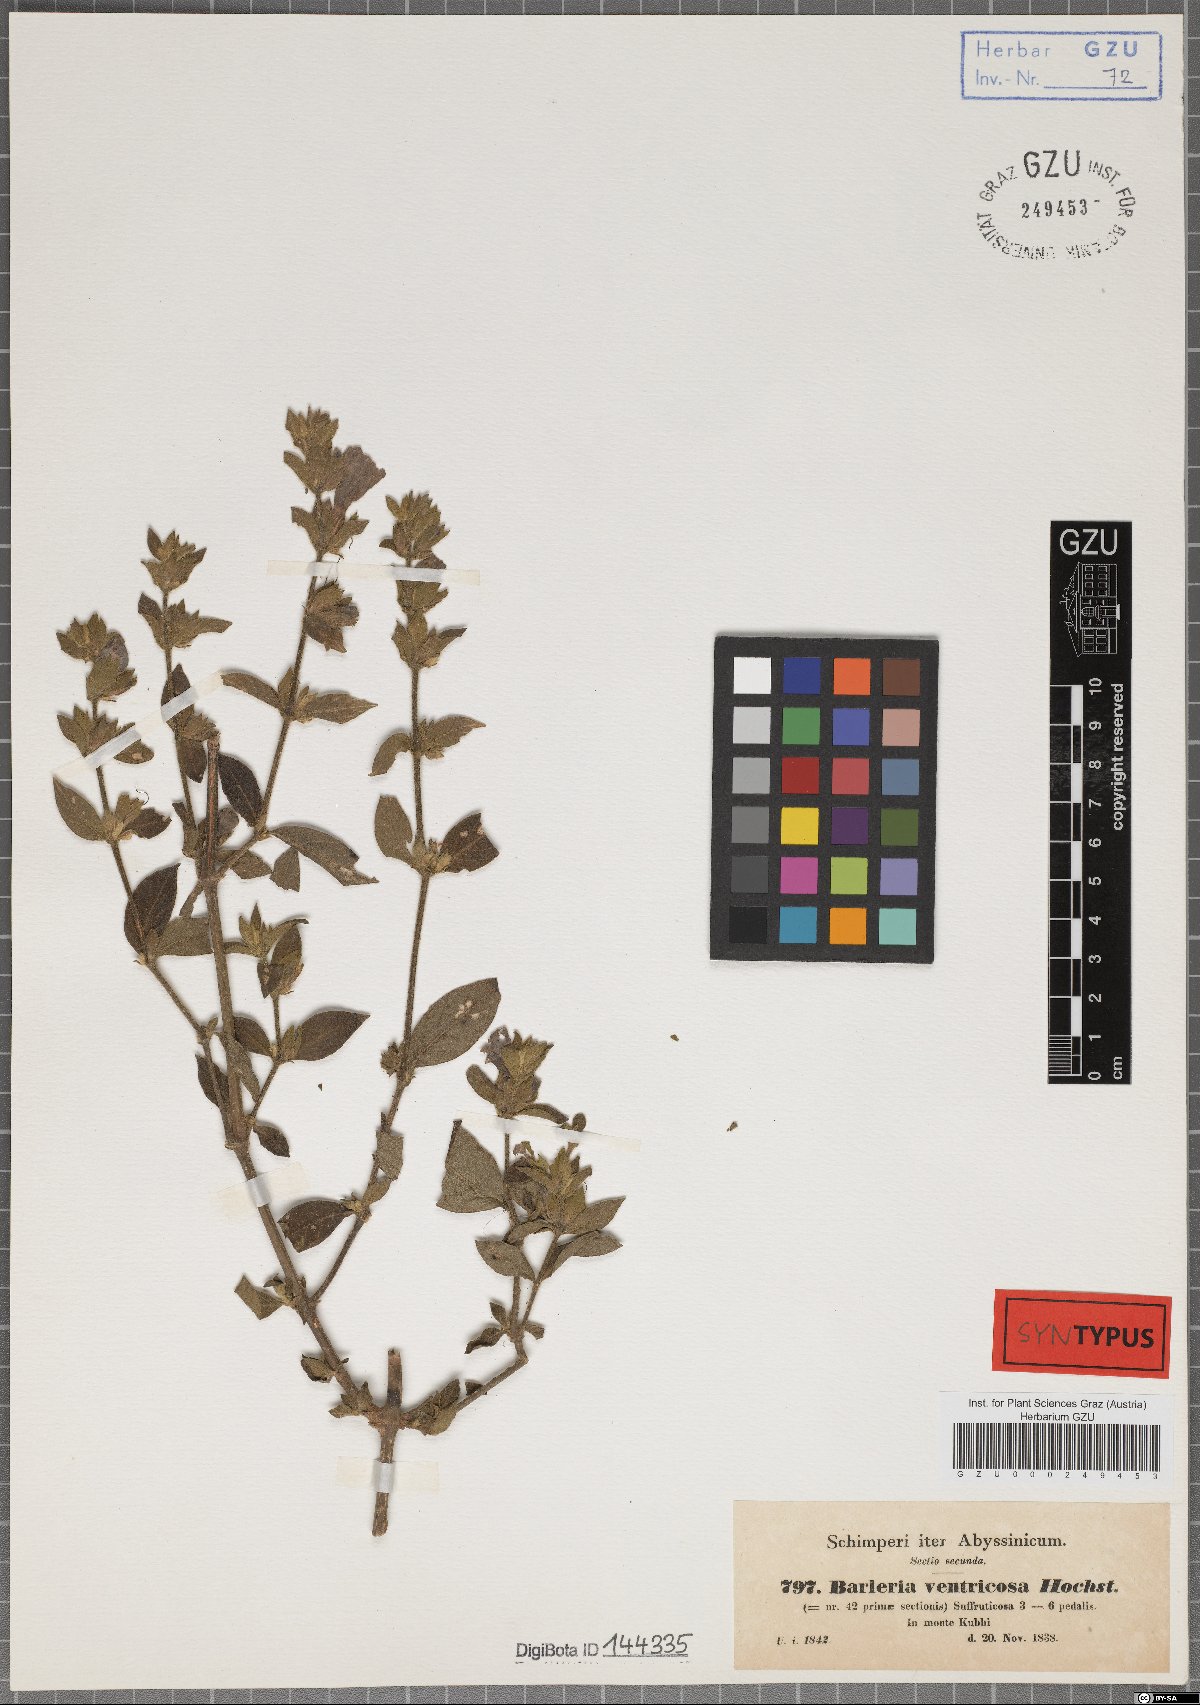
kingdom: Plantae
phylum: Tracheophyta
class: Magnoliopsida
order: Lamiales
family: Acanthaceae
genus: Barleria
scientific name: Barleria ventricosa
